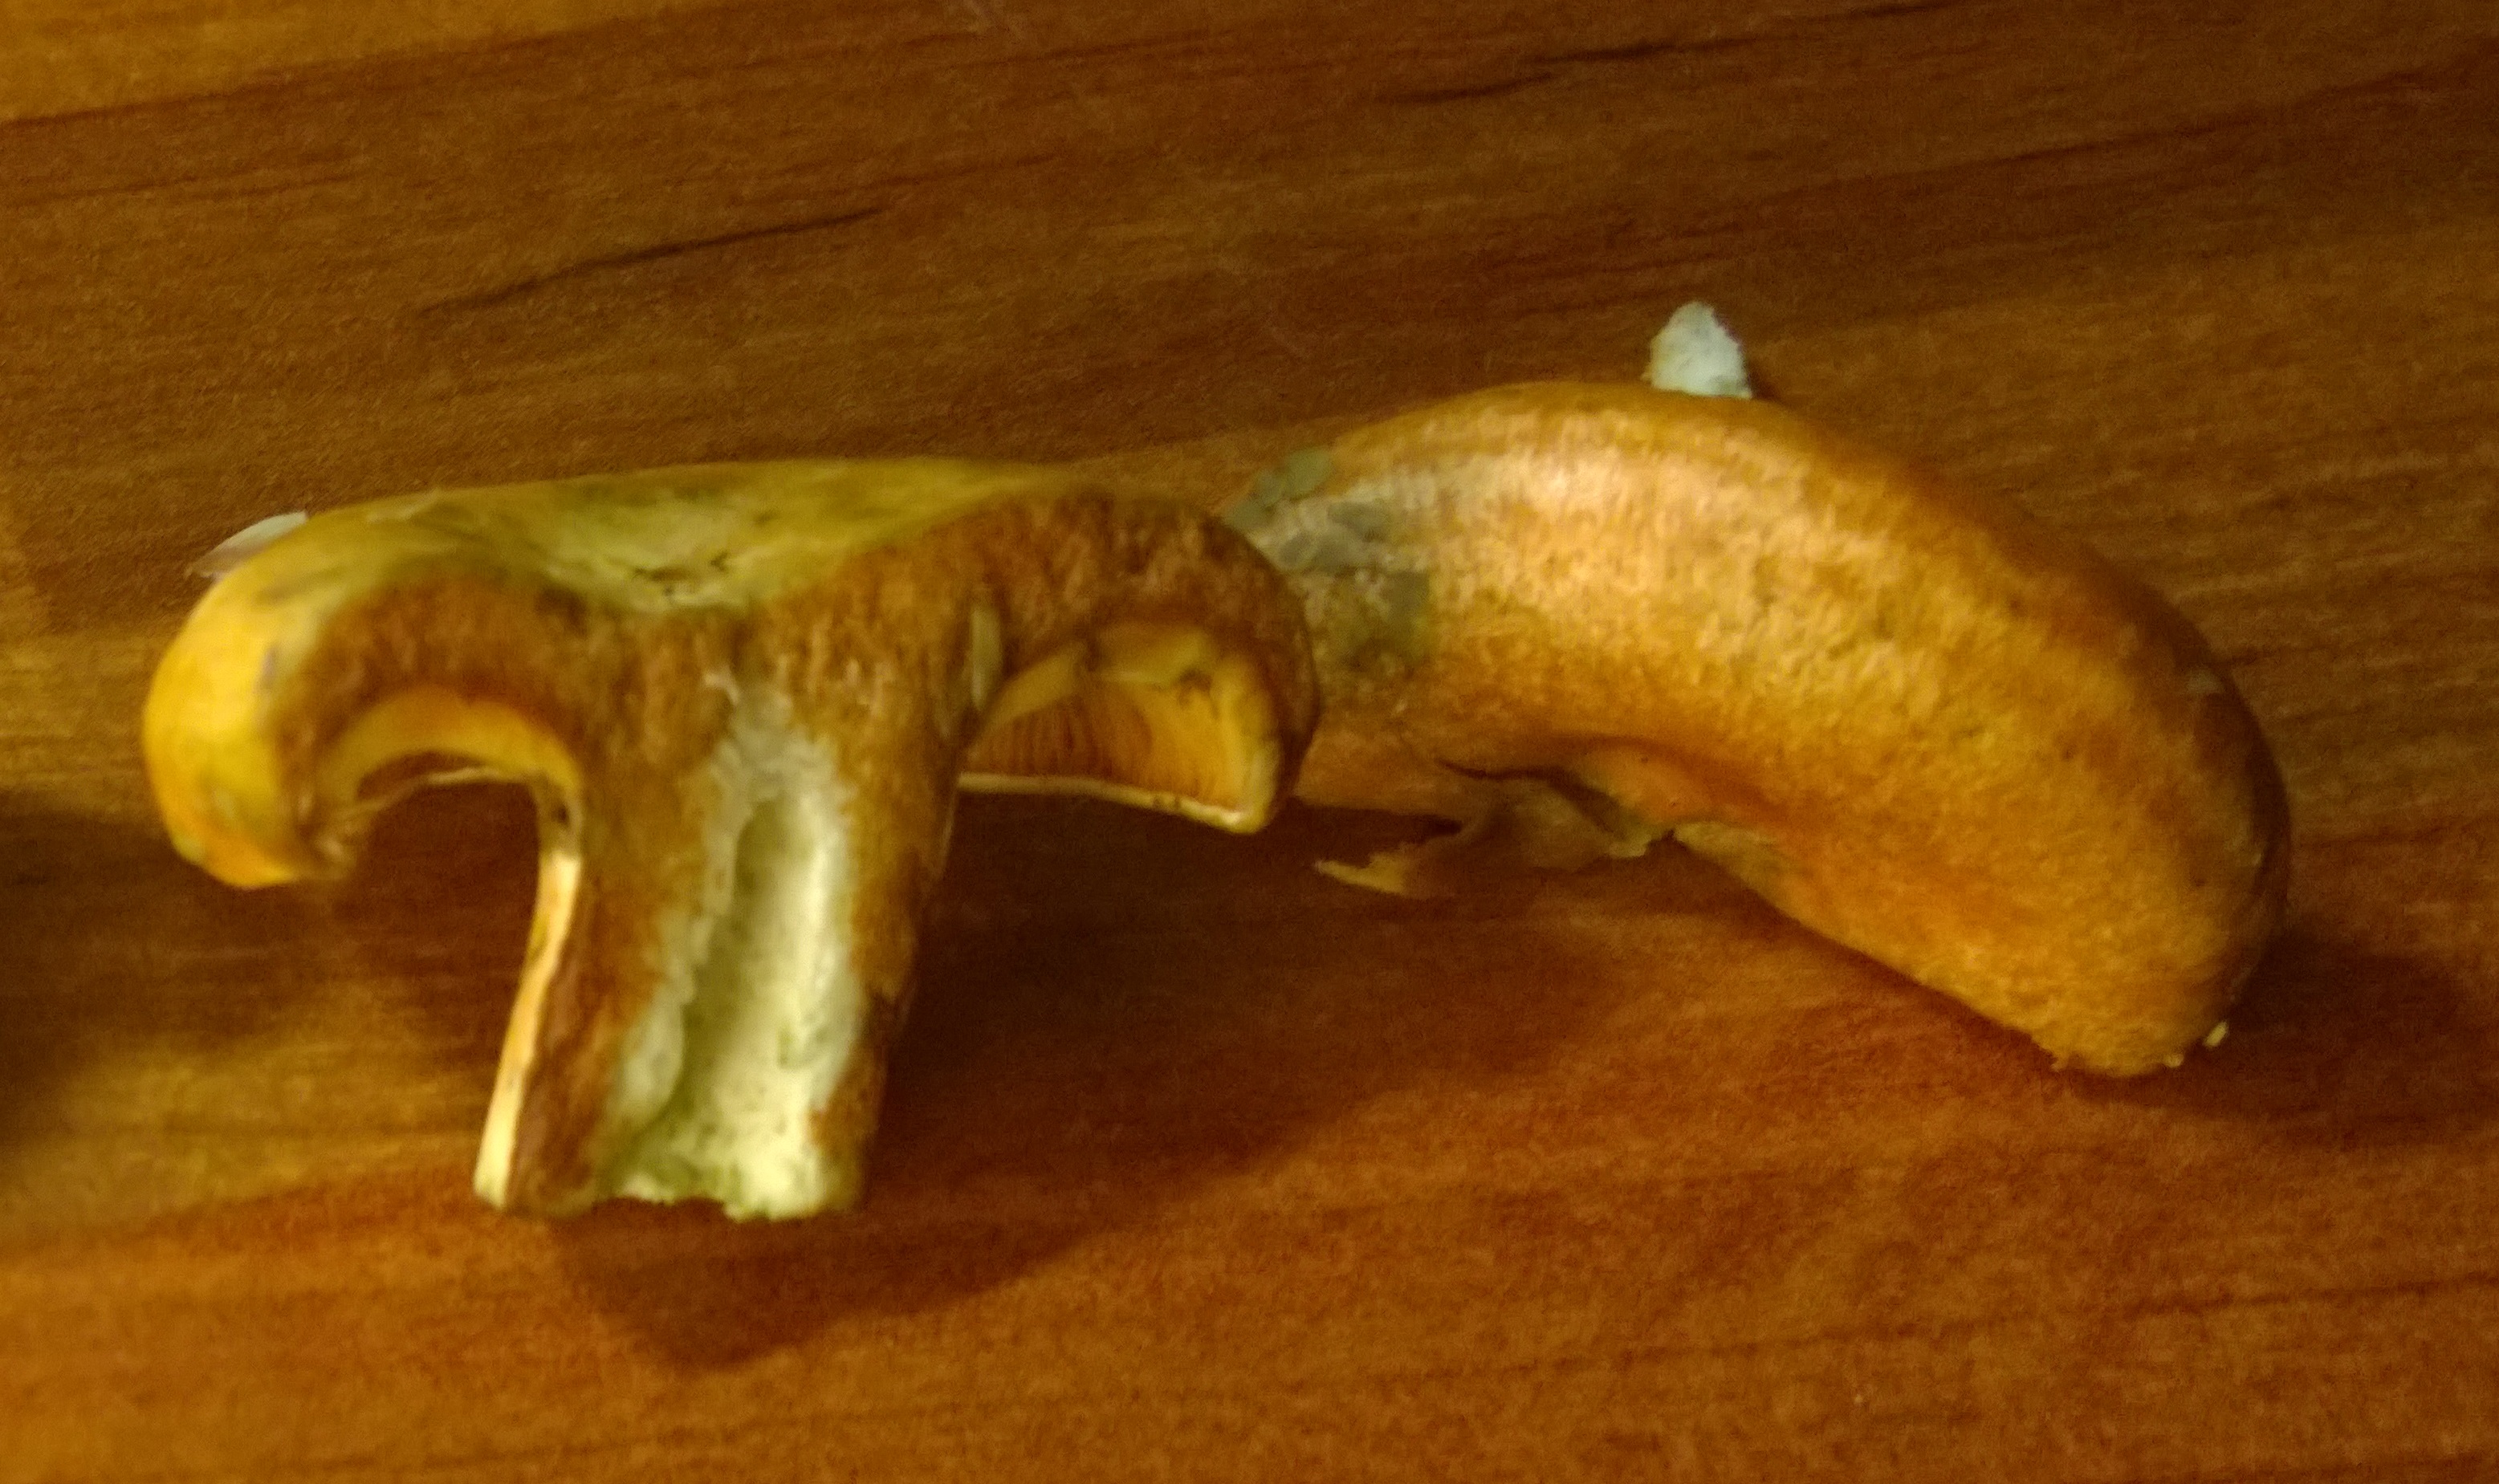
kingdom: Fungi
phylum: Basidiomycota
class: Agaricomycetes
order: Russulales
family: Russulaceae
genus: Lactarius
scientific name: Lactarius deterrimus
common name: False saffron milkcap
